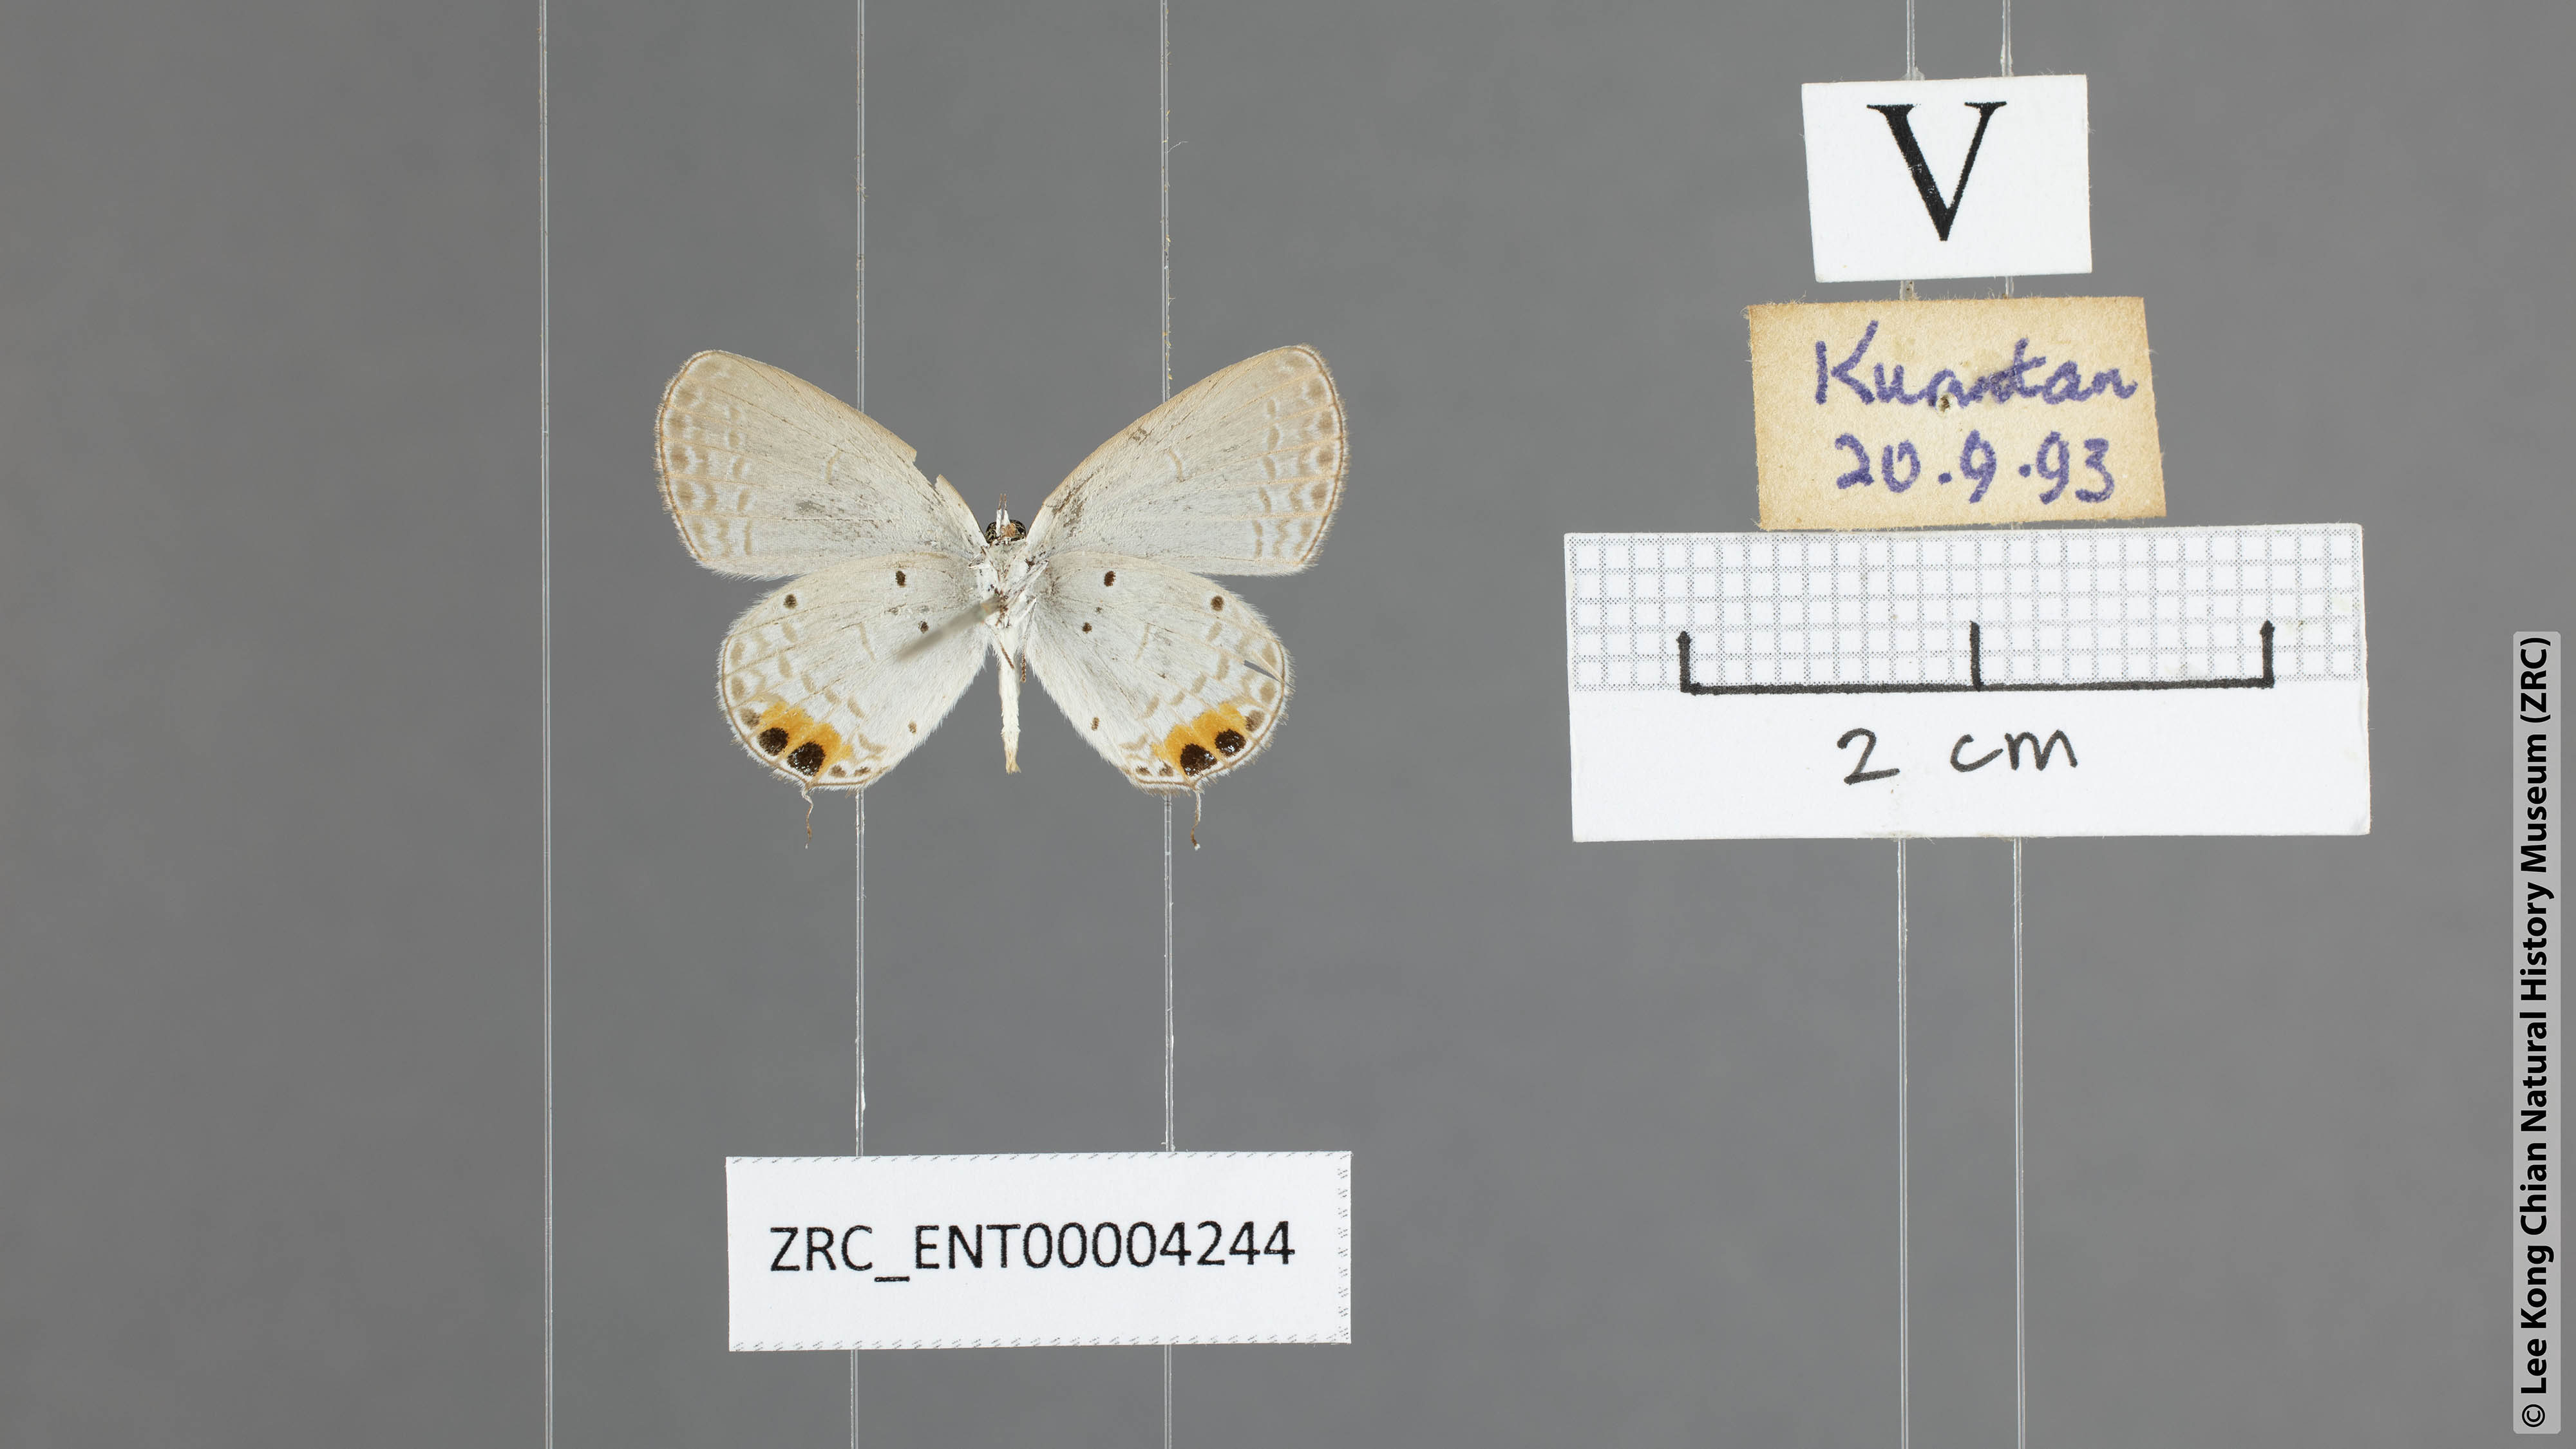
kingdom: Animalia
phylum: Arthropoda
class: Insecta
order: Lepidoptera
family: Lycaenidae
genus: Everes
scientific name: Everes lacturnus
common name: Orange-tipped pea-blue
